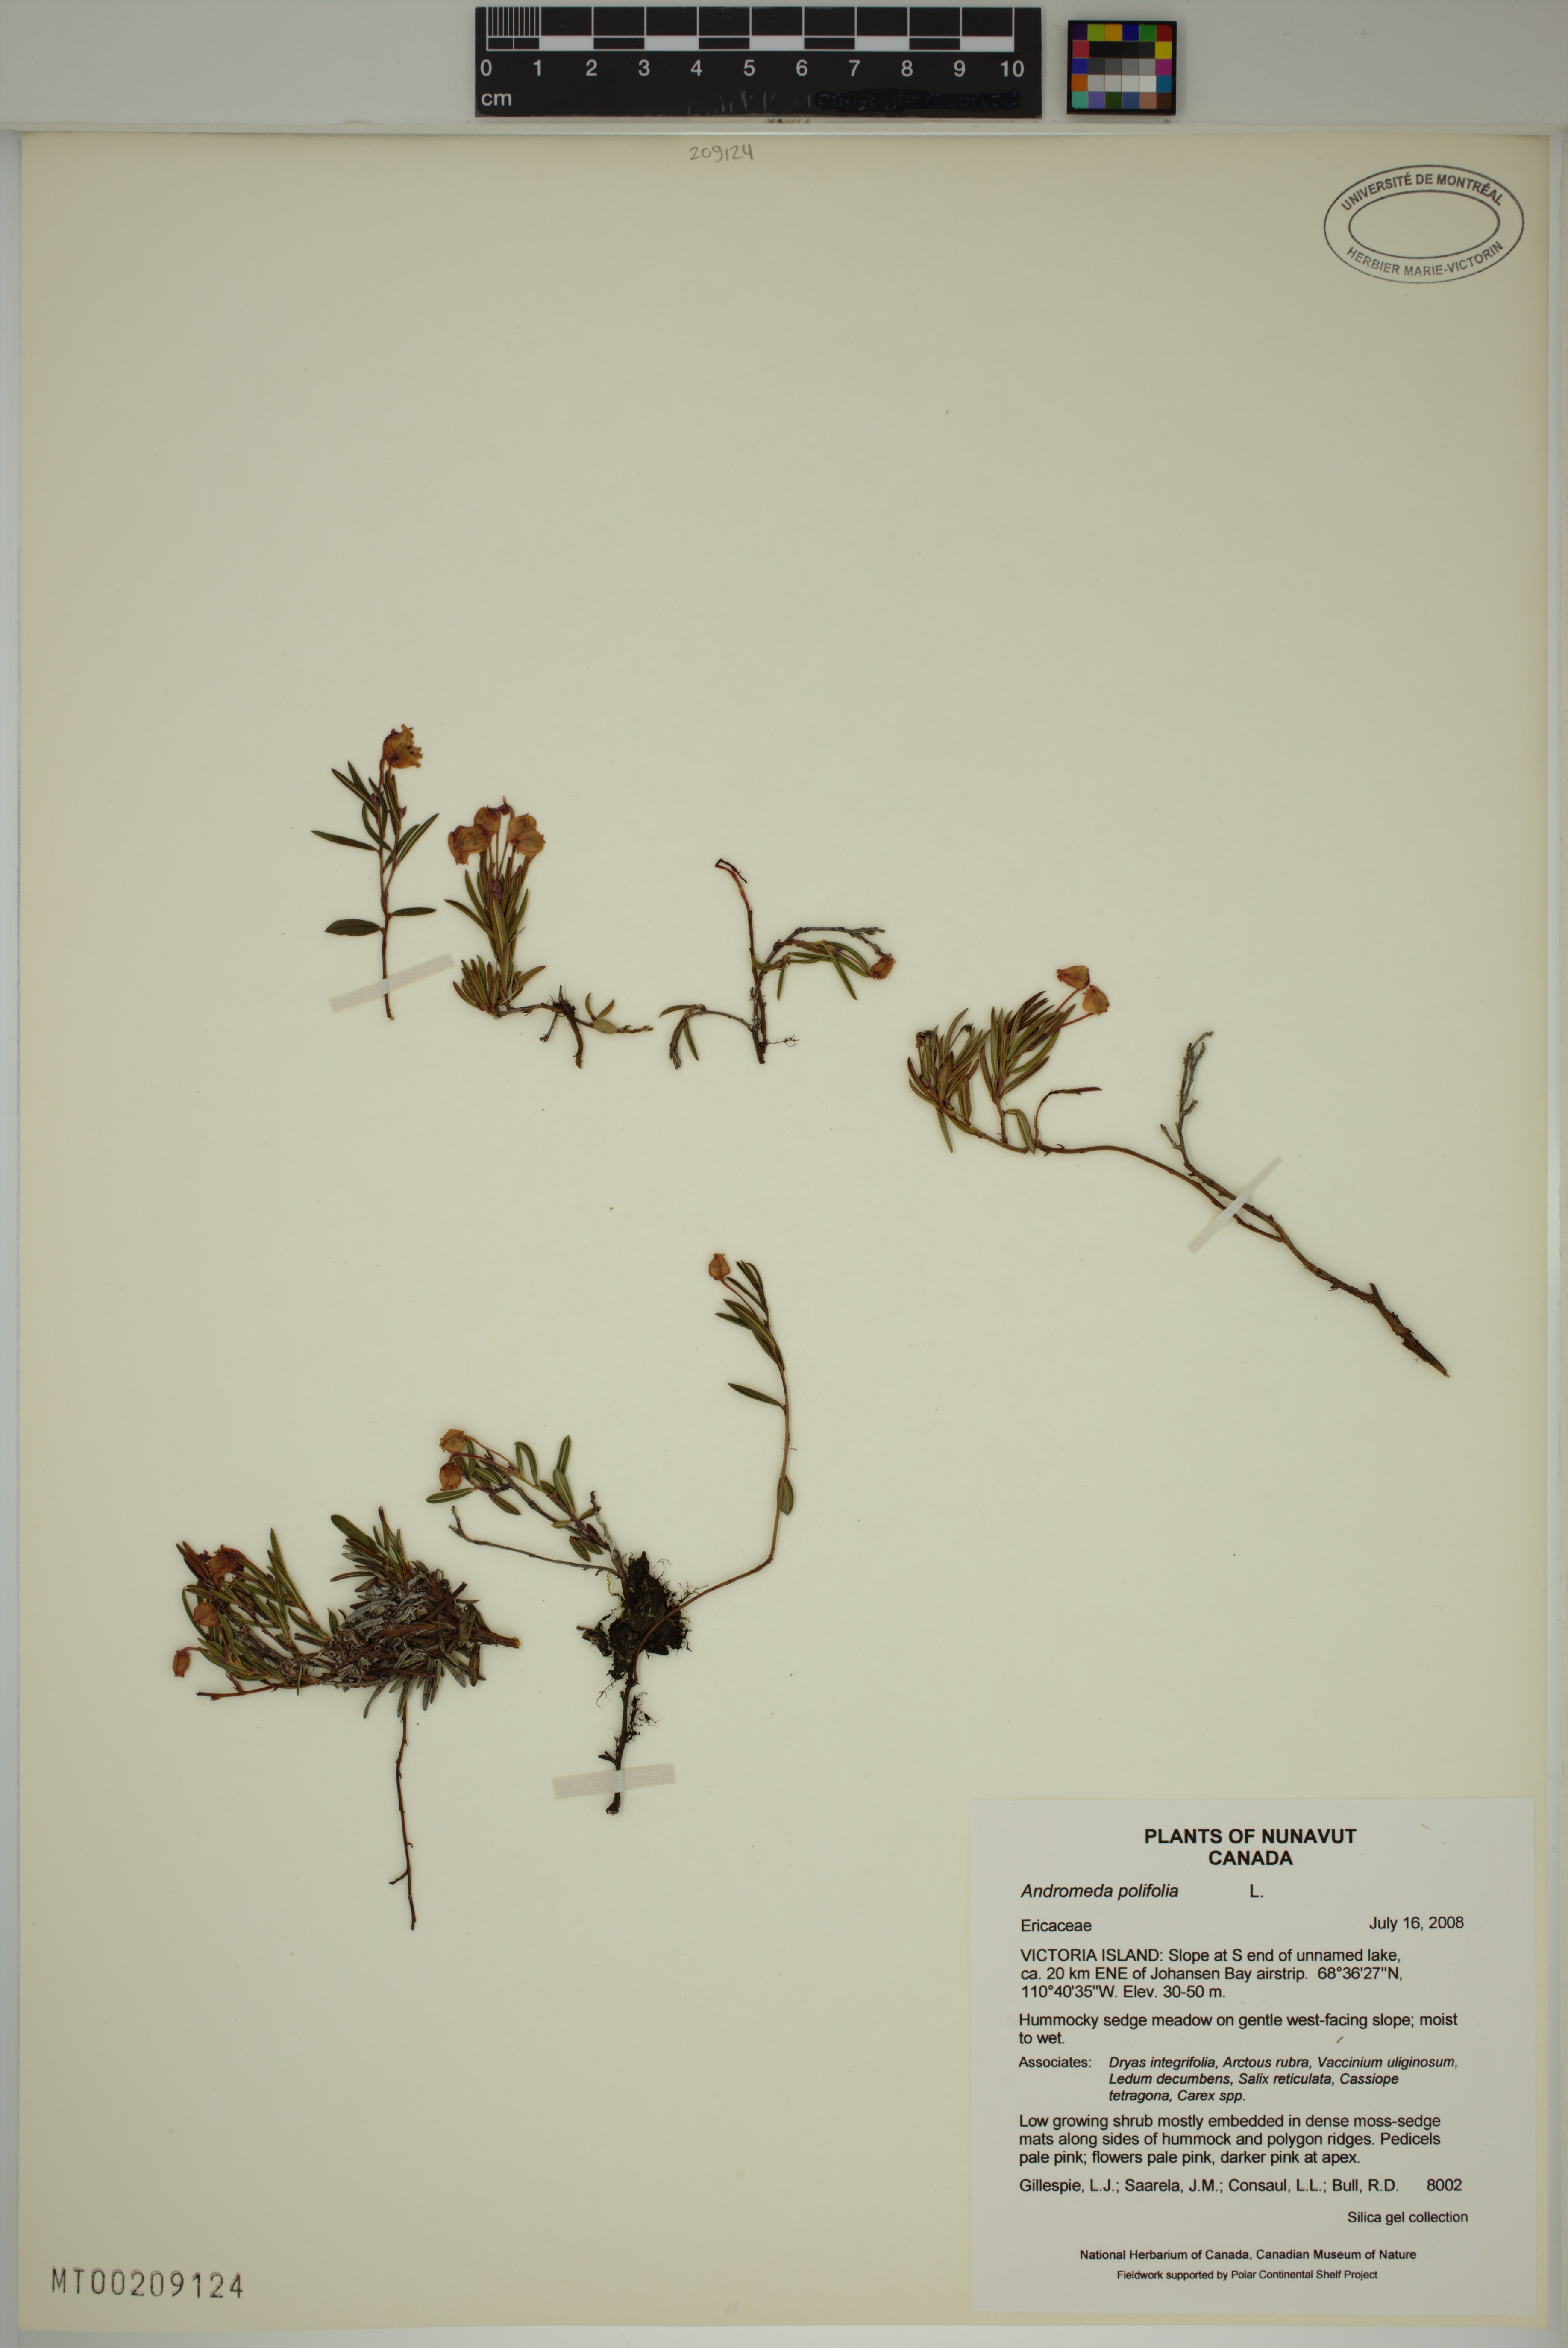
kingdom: Plantae
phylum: Tracheophyta
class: Magnoliopsida
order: Ericales
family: Ericaceae
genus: Andromeda
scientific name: Andromeda polifolia
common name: Bog-rosemary
